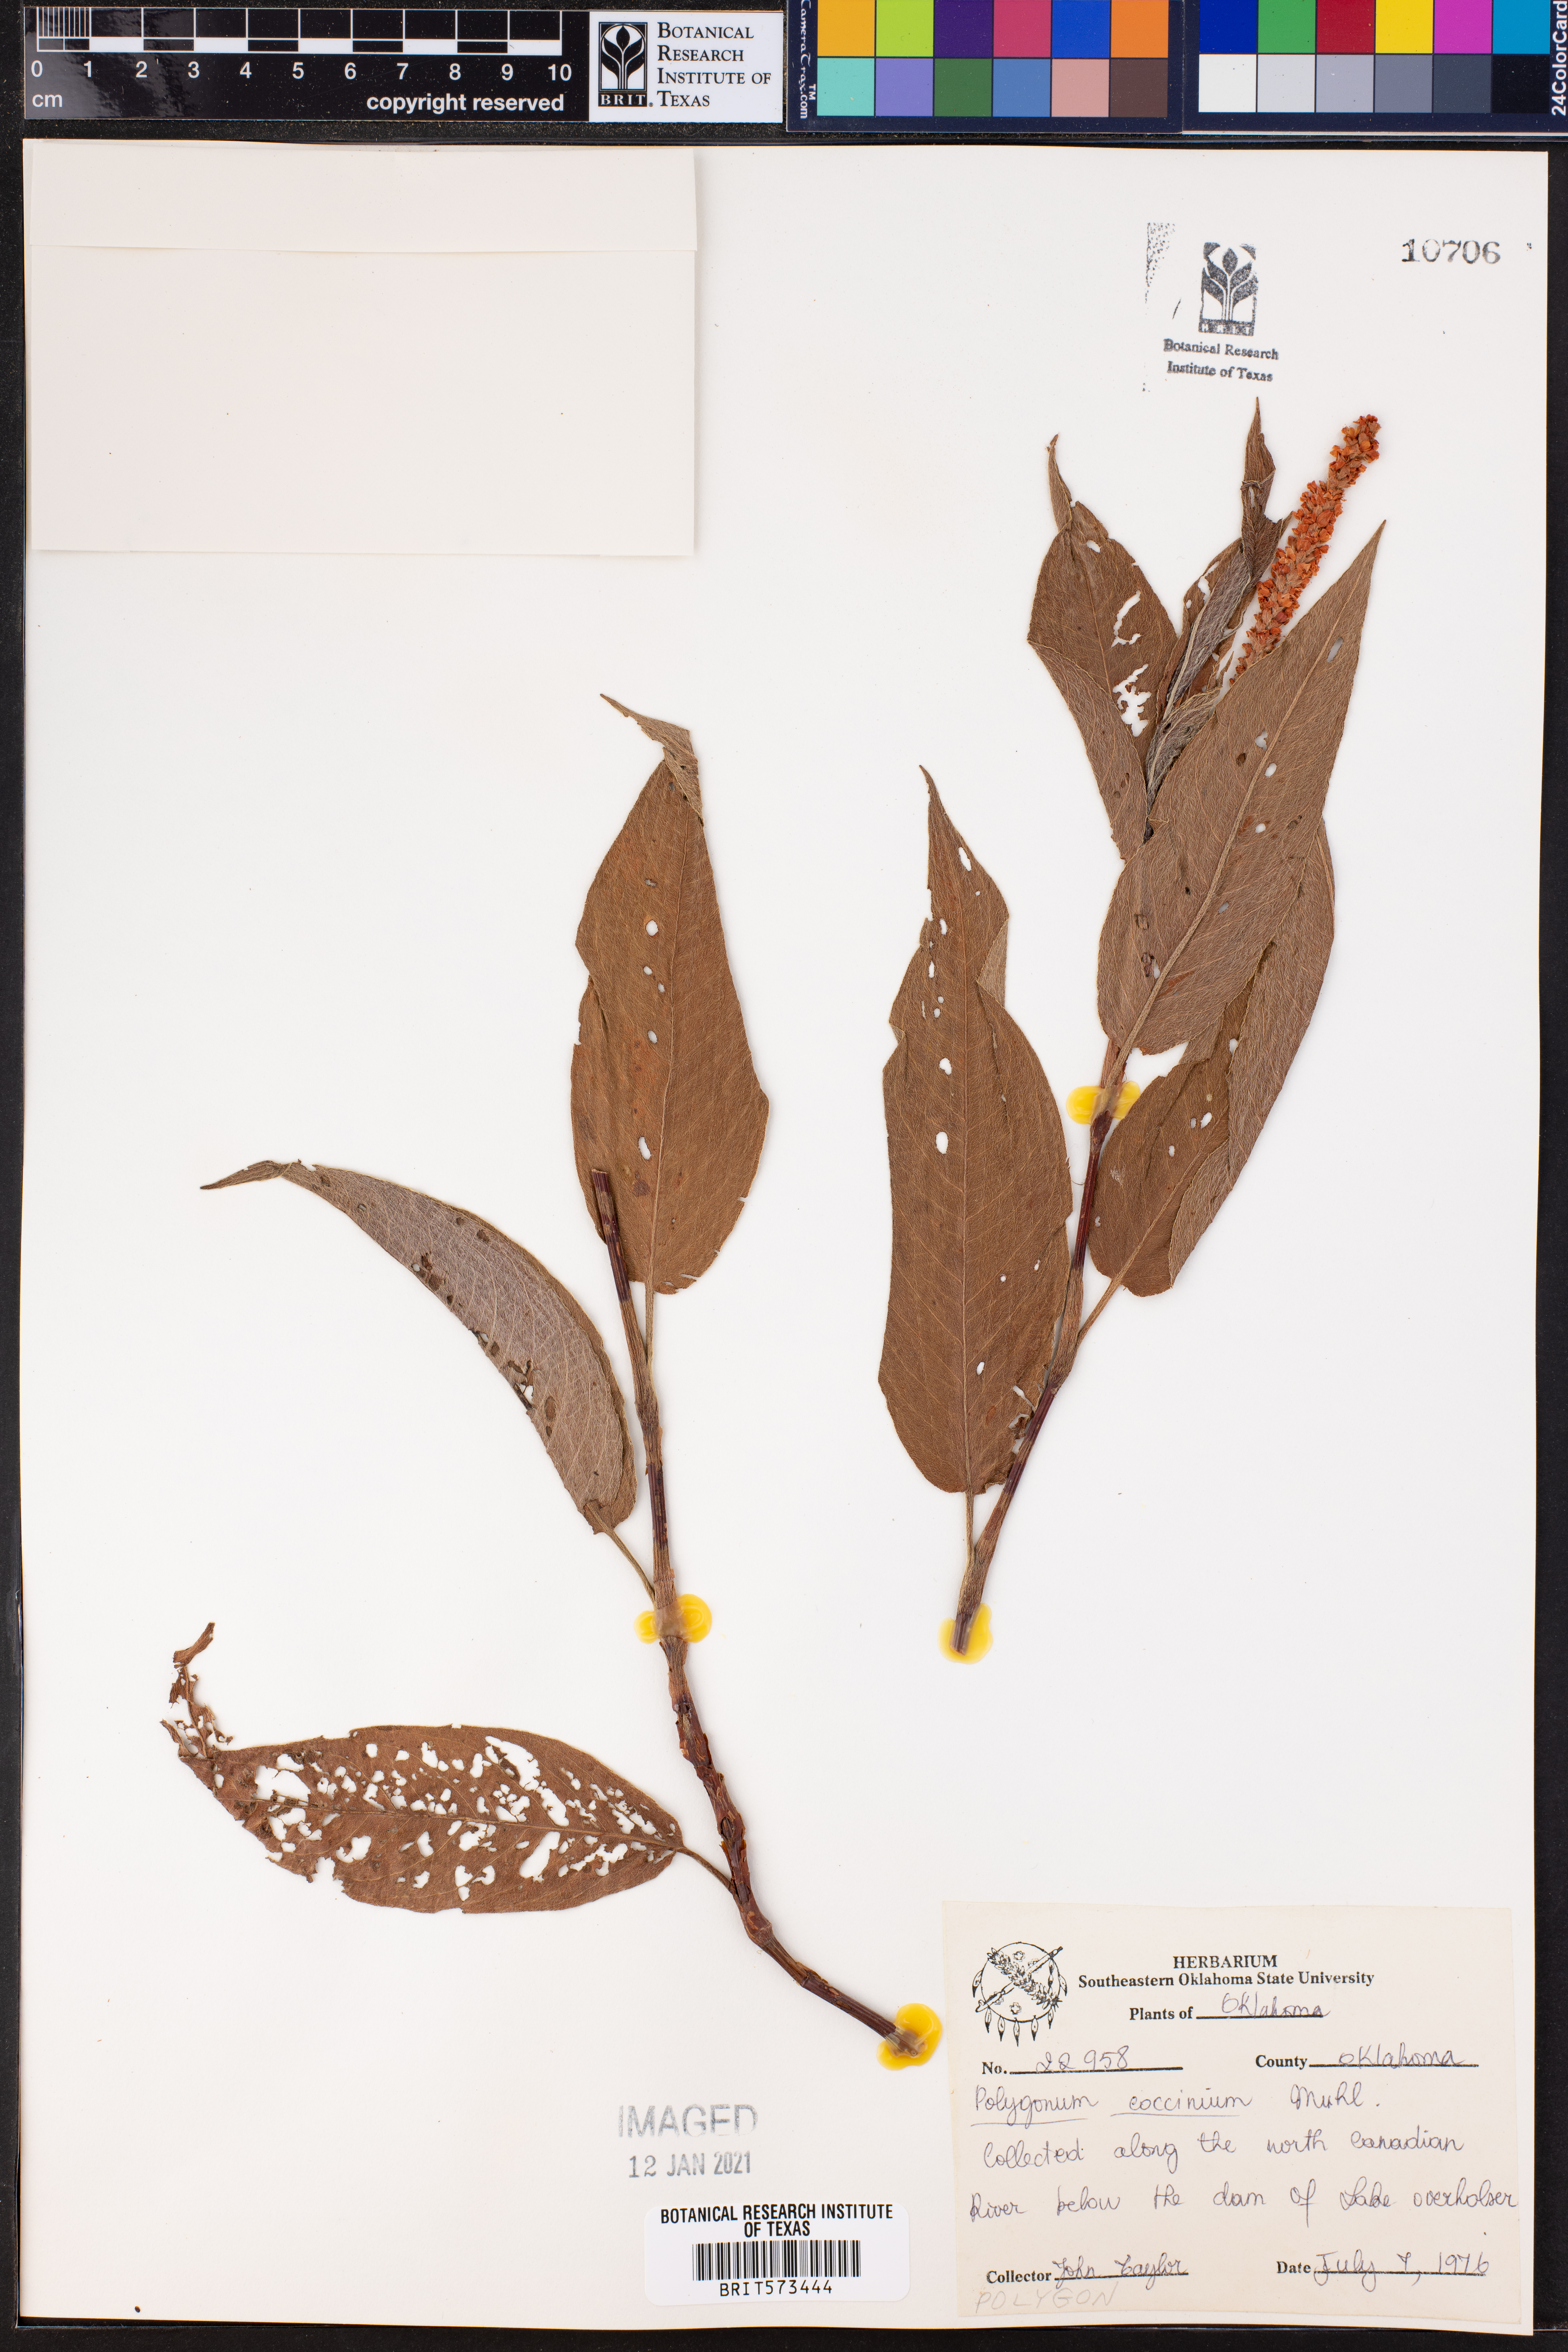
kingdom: Plantae
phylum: Tracheophyta
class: Magnoliopsida
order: Caryophyllales
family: Polygonaceae
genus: Persicaria
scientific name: Persicaria amphibia
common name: Amphibious bistort
